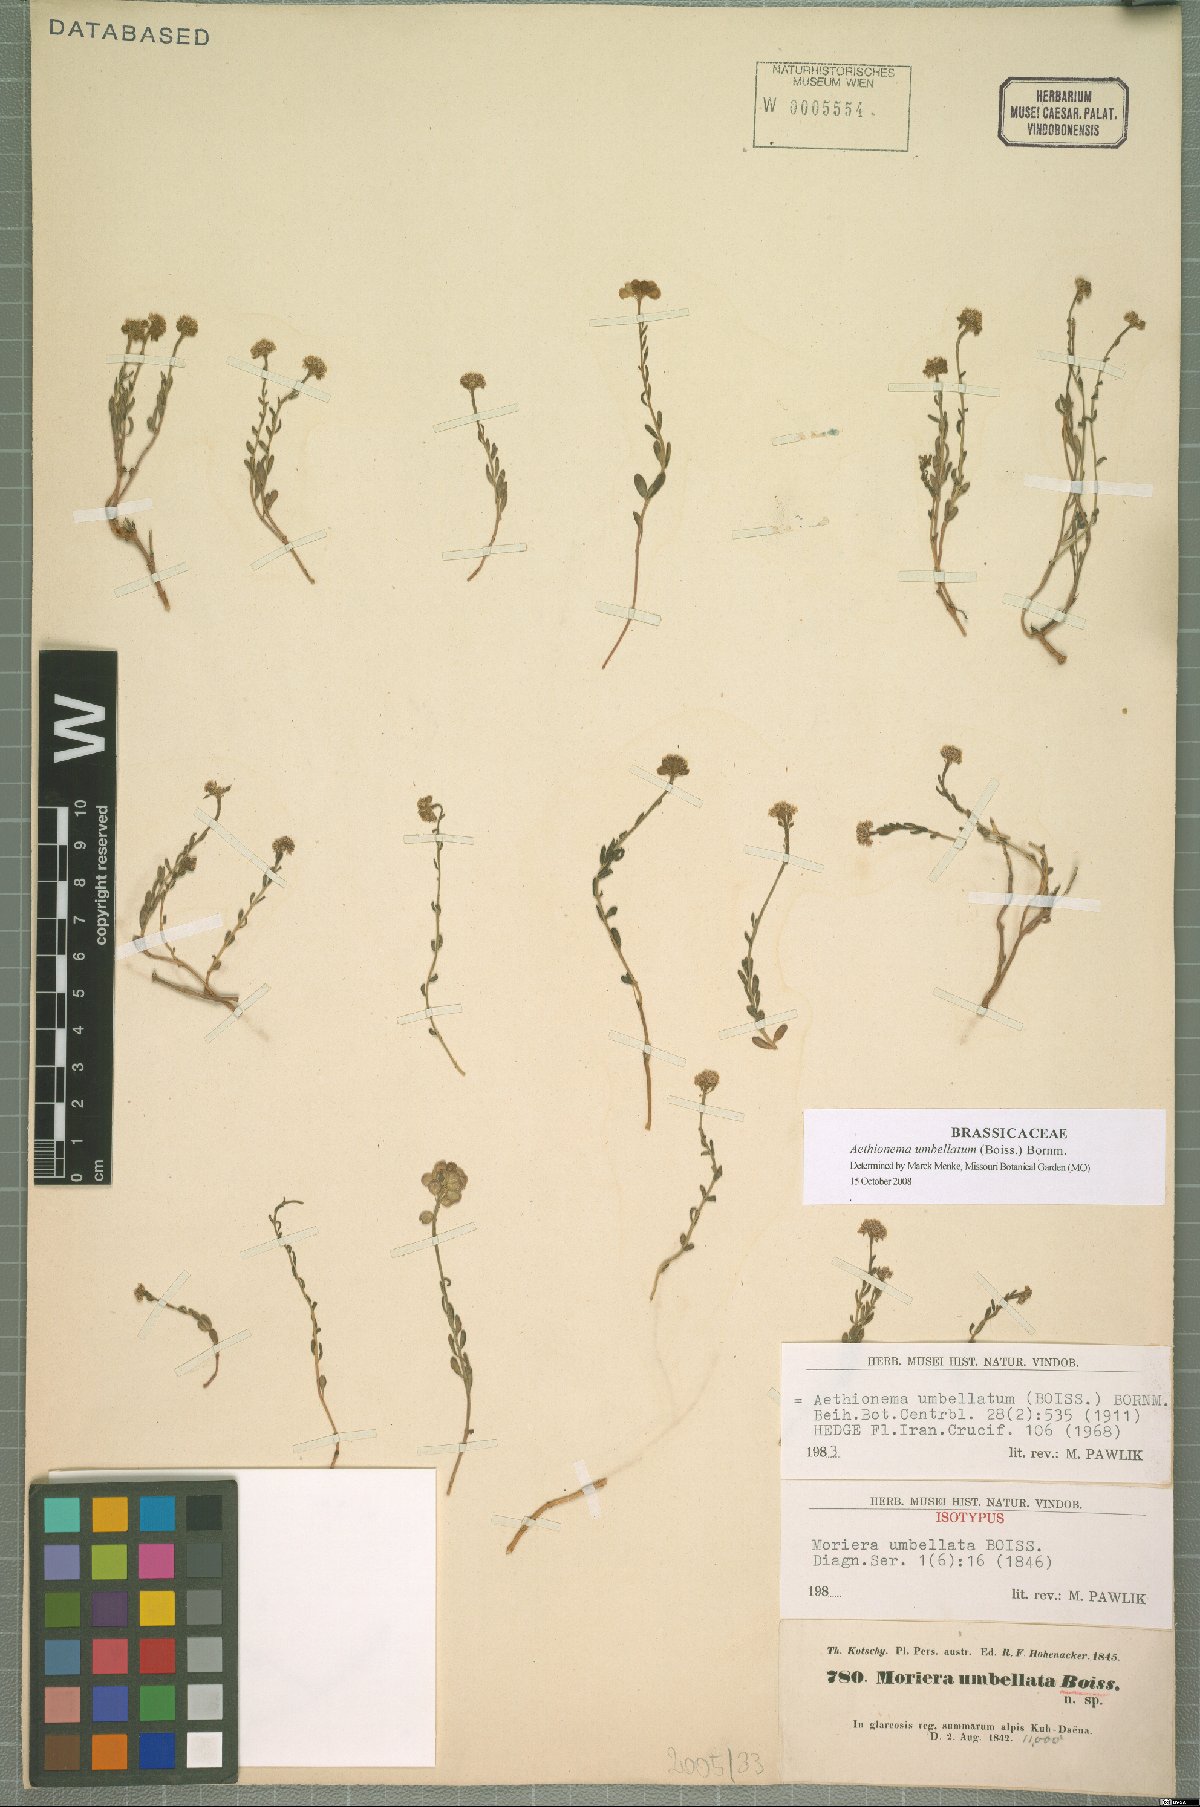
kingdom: Plantae
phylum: Tracheophyta
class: Magnoliopsida
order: Brassicales
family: Brassicaceae
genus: Aethionema
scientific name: Aethionema umbellatum
